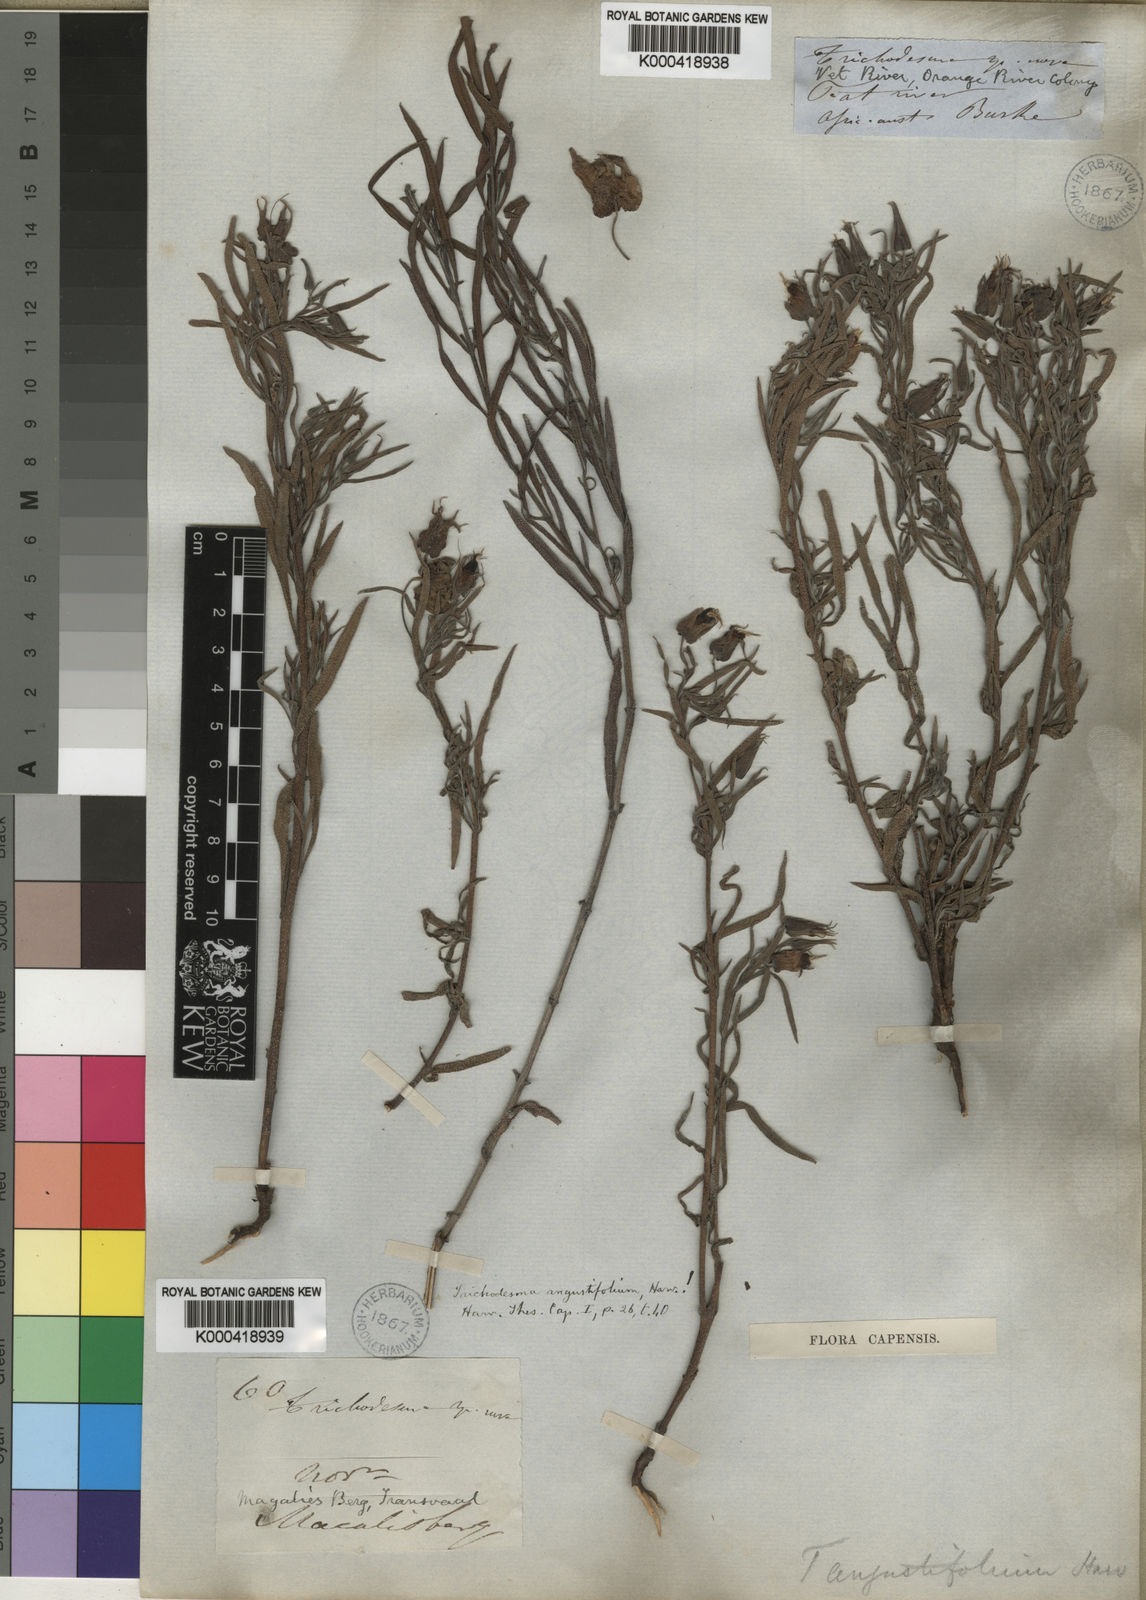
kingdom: Plantae
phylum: Tracheophyta
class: Magnoliopsida
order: Boraginales
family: Boraginaceae
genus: Trichodesma
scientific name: Trichodesma angustifolium
